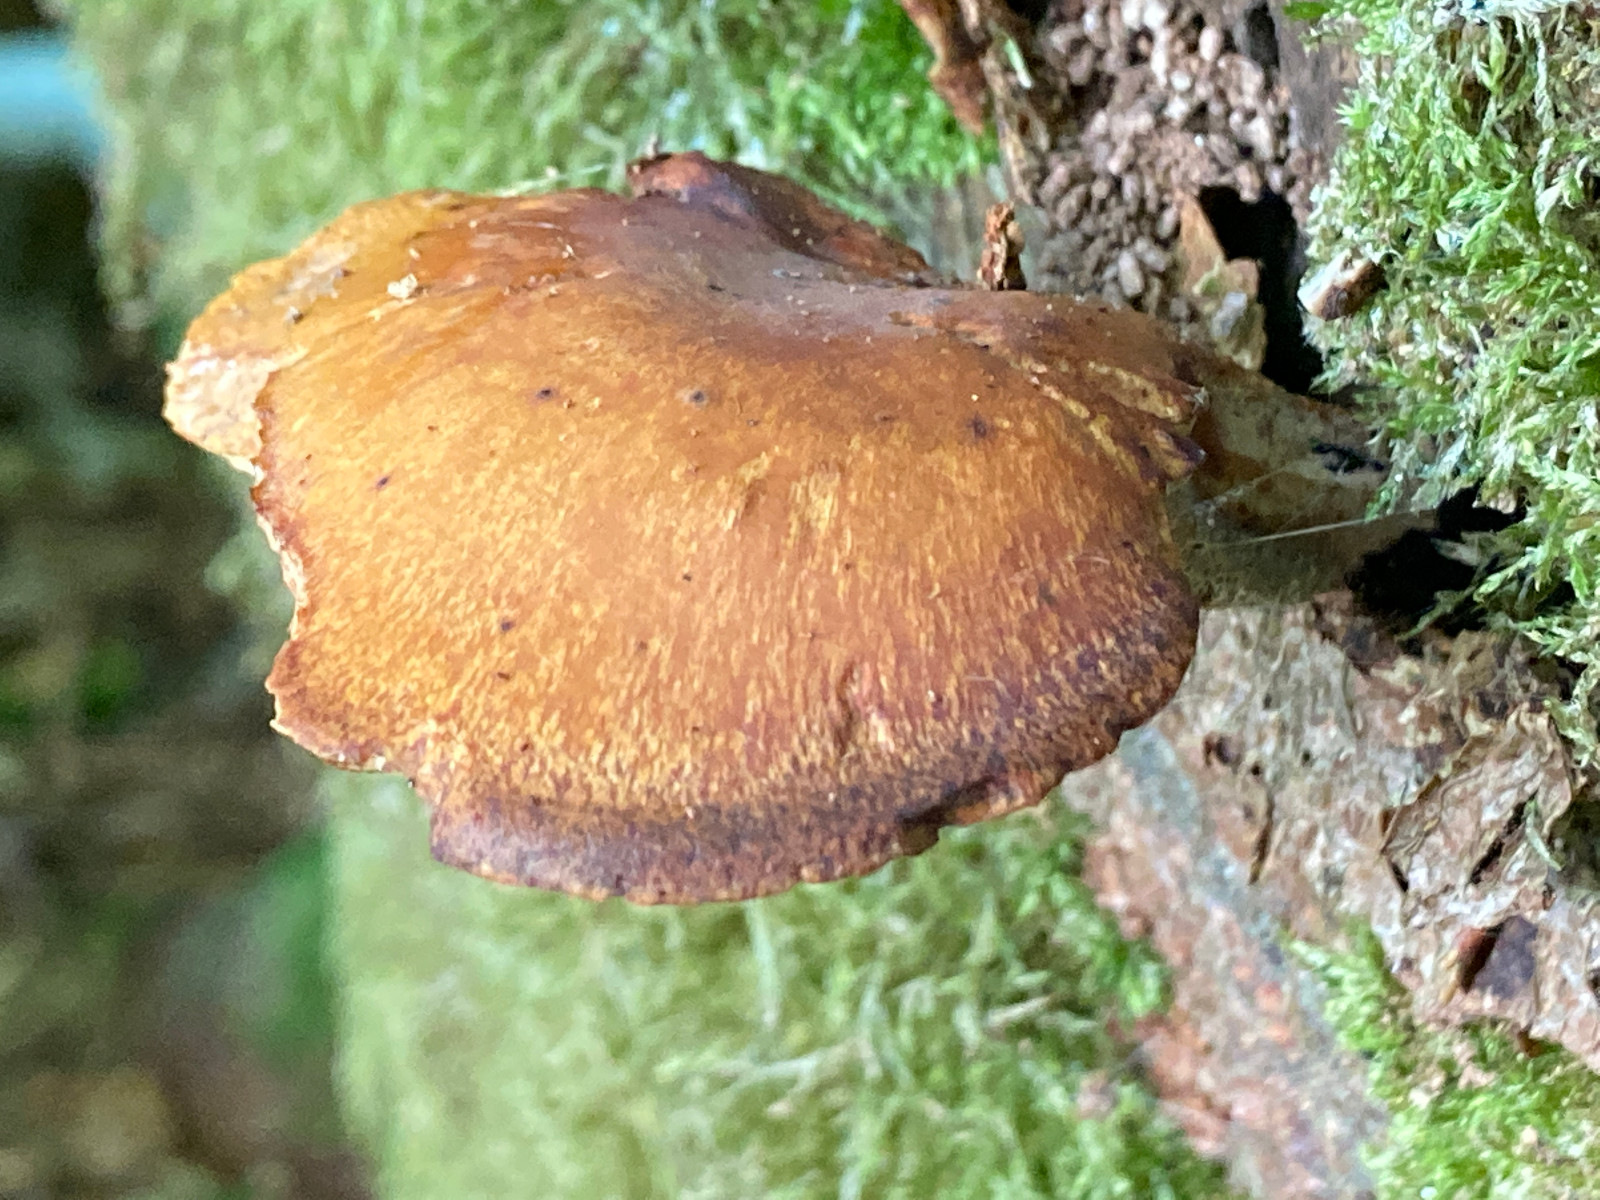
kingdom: Fungi
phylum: Basidiomycota
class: Agaricomycetes
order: Polyporales
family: Polyporaceae
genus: Cerioporus
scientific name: Cerioporus varius
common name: foranderlig stilkporesvamp
